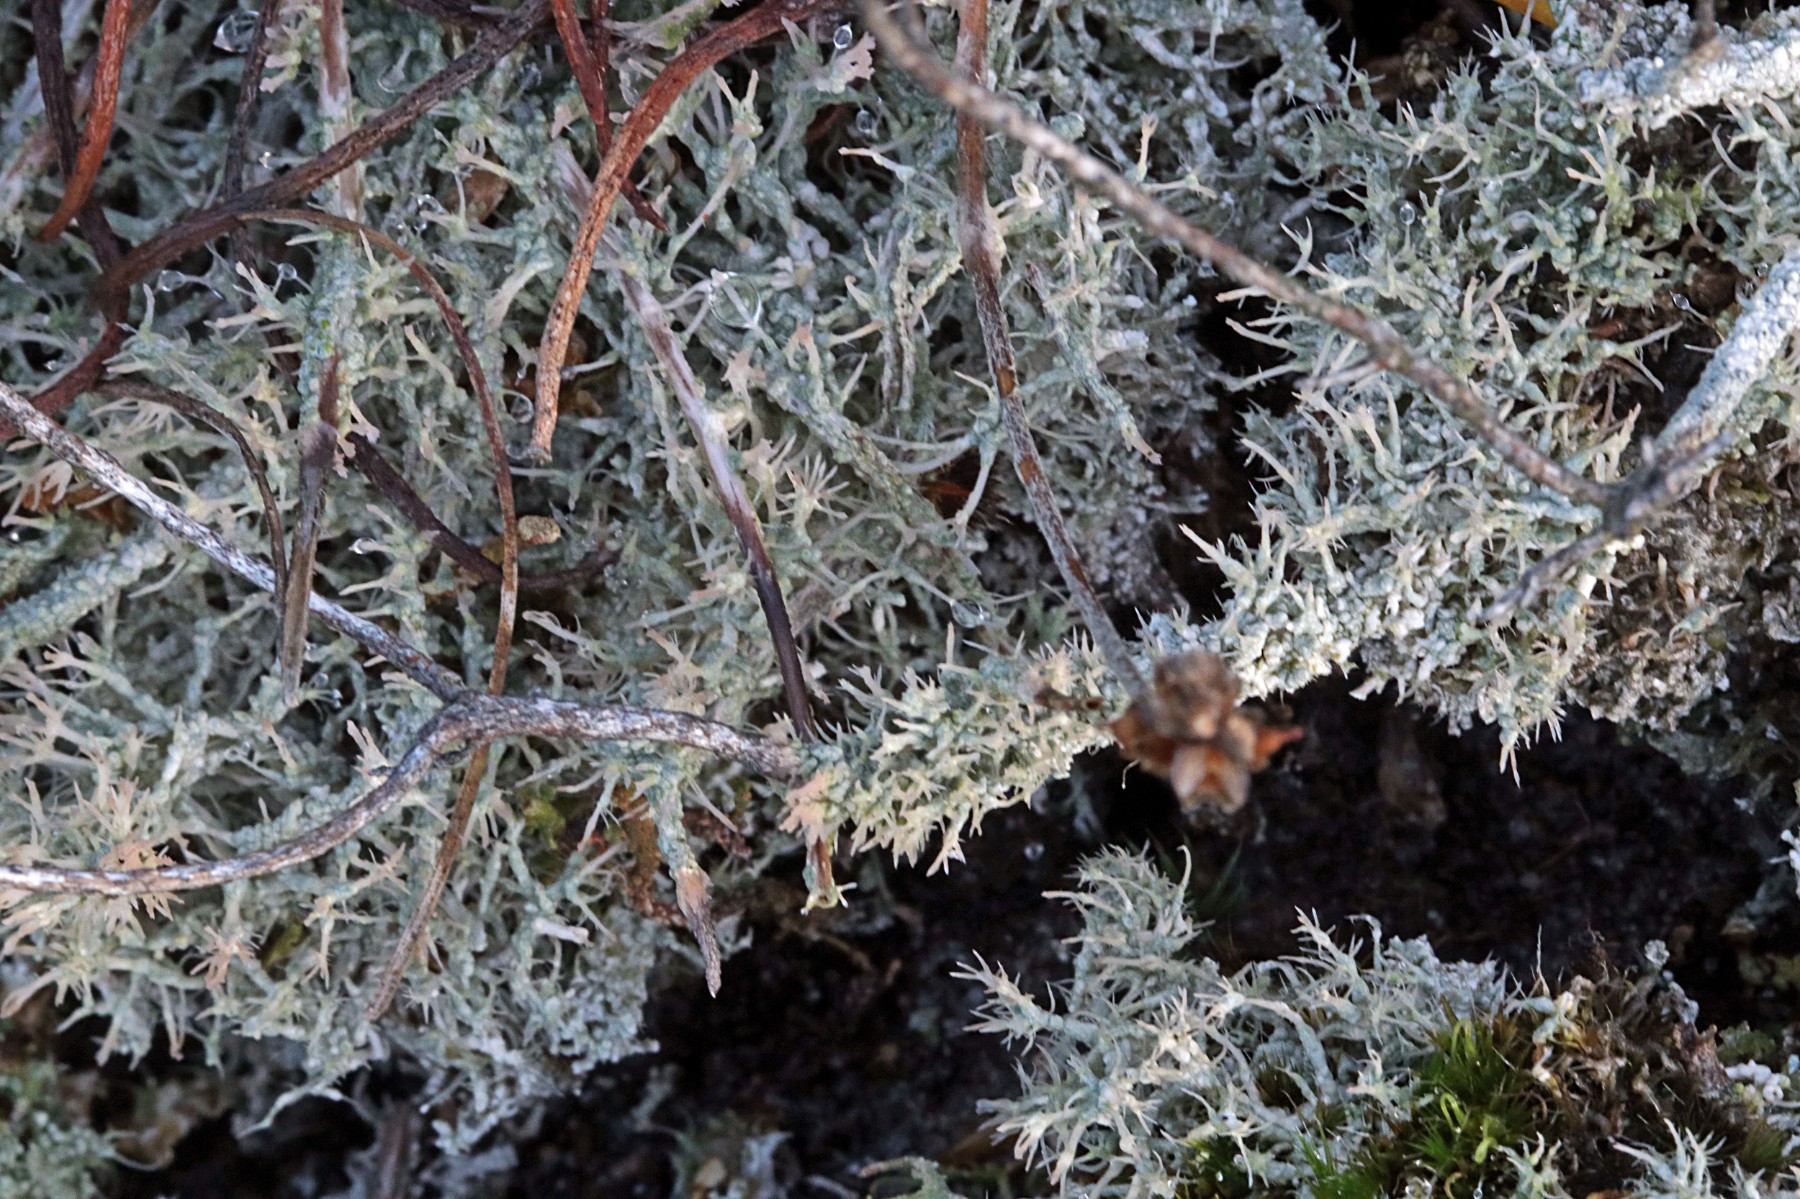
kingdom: Fungi
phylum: Ascomycota
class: Lecanoromycetes
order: Pertusariales
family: Ochrolechiaceae
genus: Ochrolechia
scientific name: Ochrolechia frigida
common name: fjeld-blegskivelav
